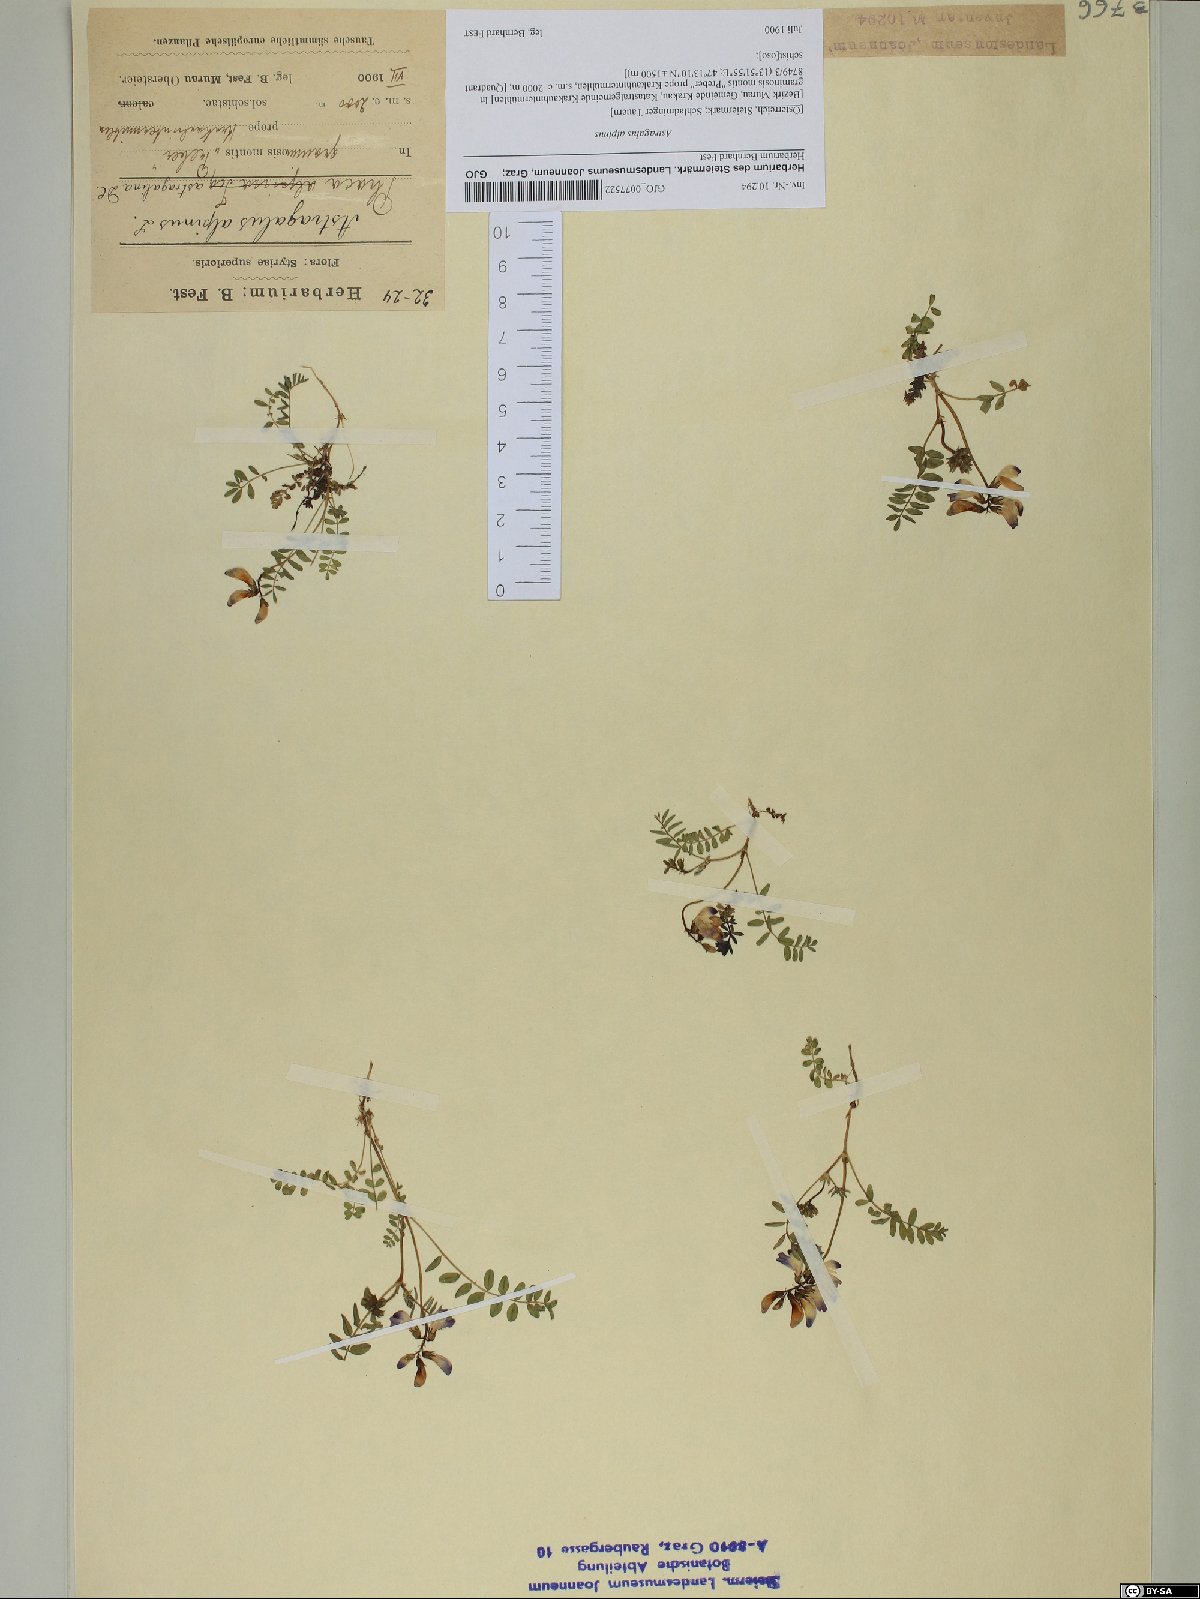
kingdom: Plantae
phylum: Tracheophyta
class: Magnoliopsida
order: Fabales
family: Fabaceae
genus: Astragalus
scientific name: Astragalus alpinus
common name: Alpine milk-vetch
